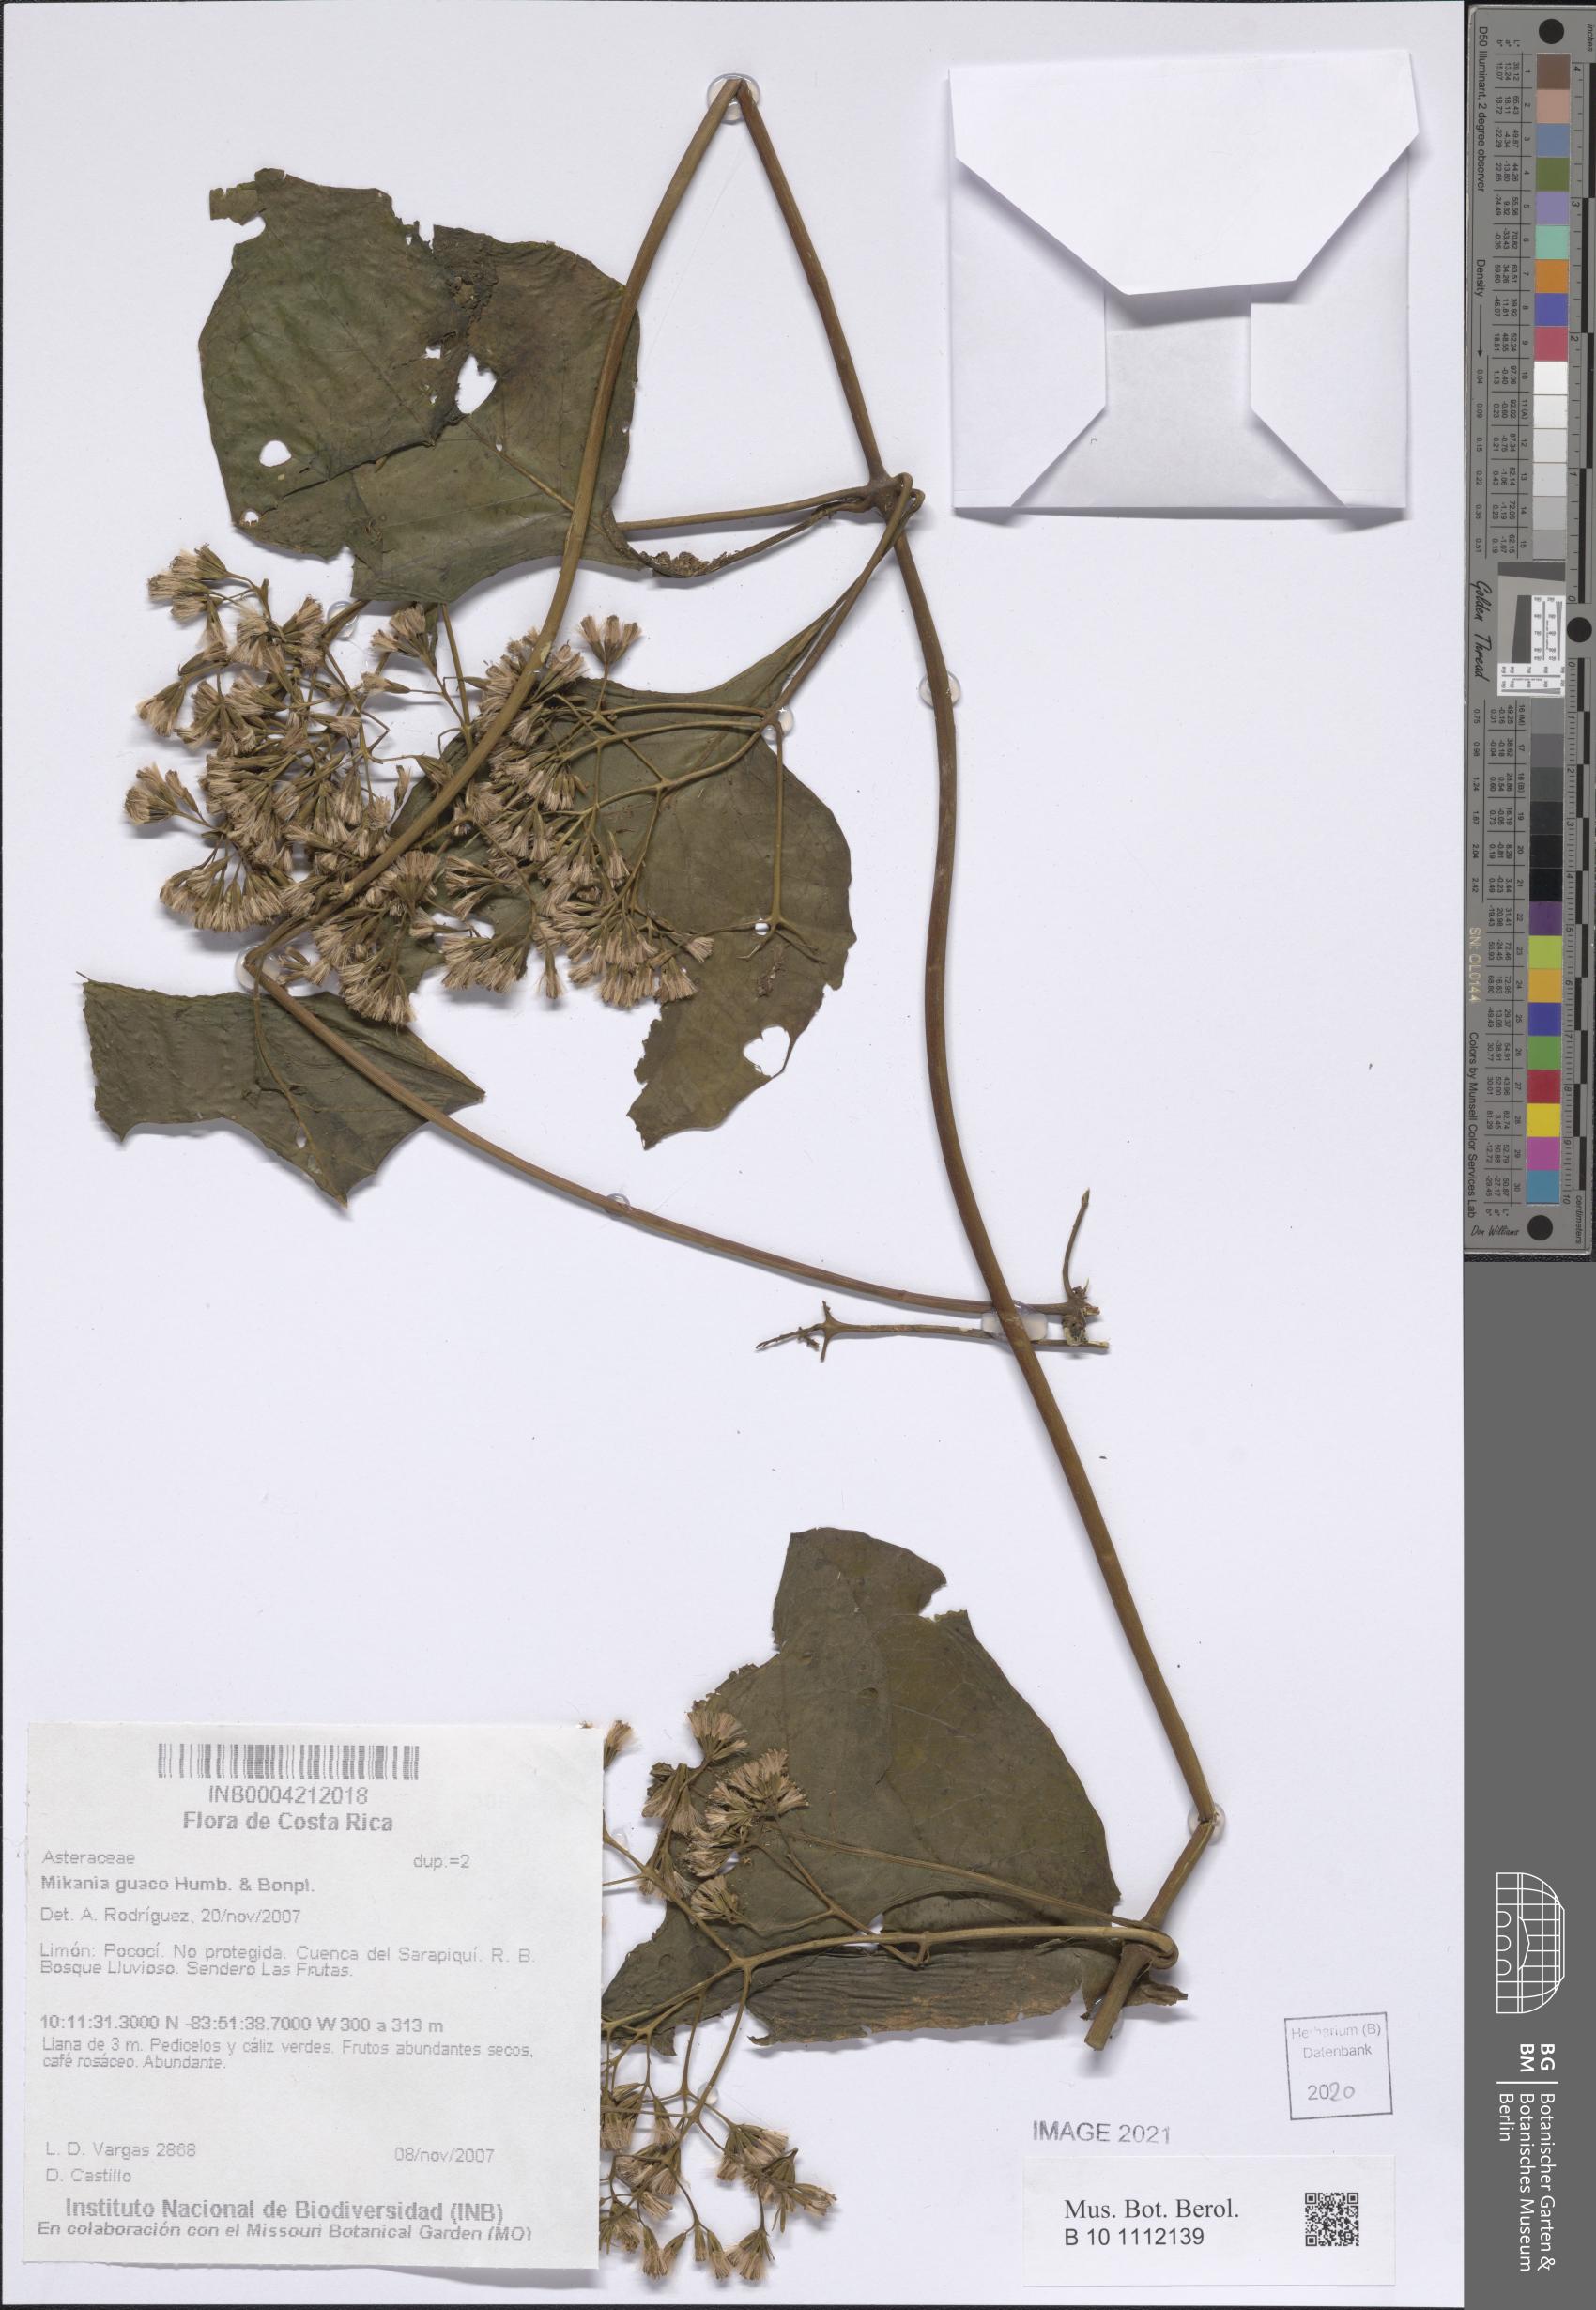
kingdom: Plantae
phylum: Tracheophyta
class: Magnoliopsida
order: Asterales
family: Asteraceae
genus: Mikania
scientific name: Mikania guaco
